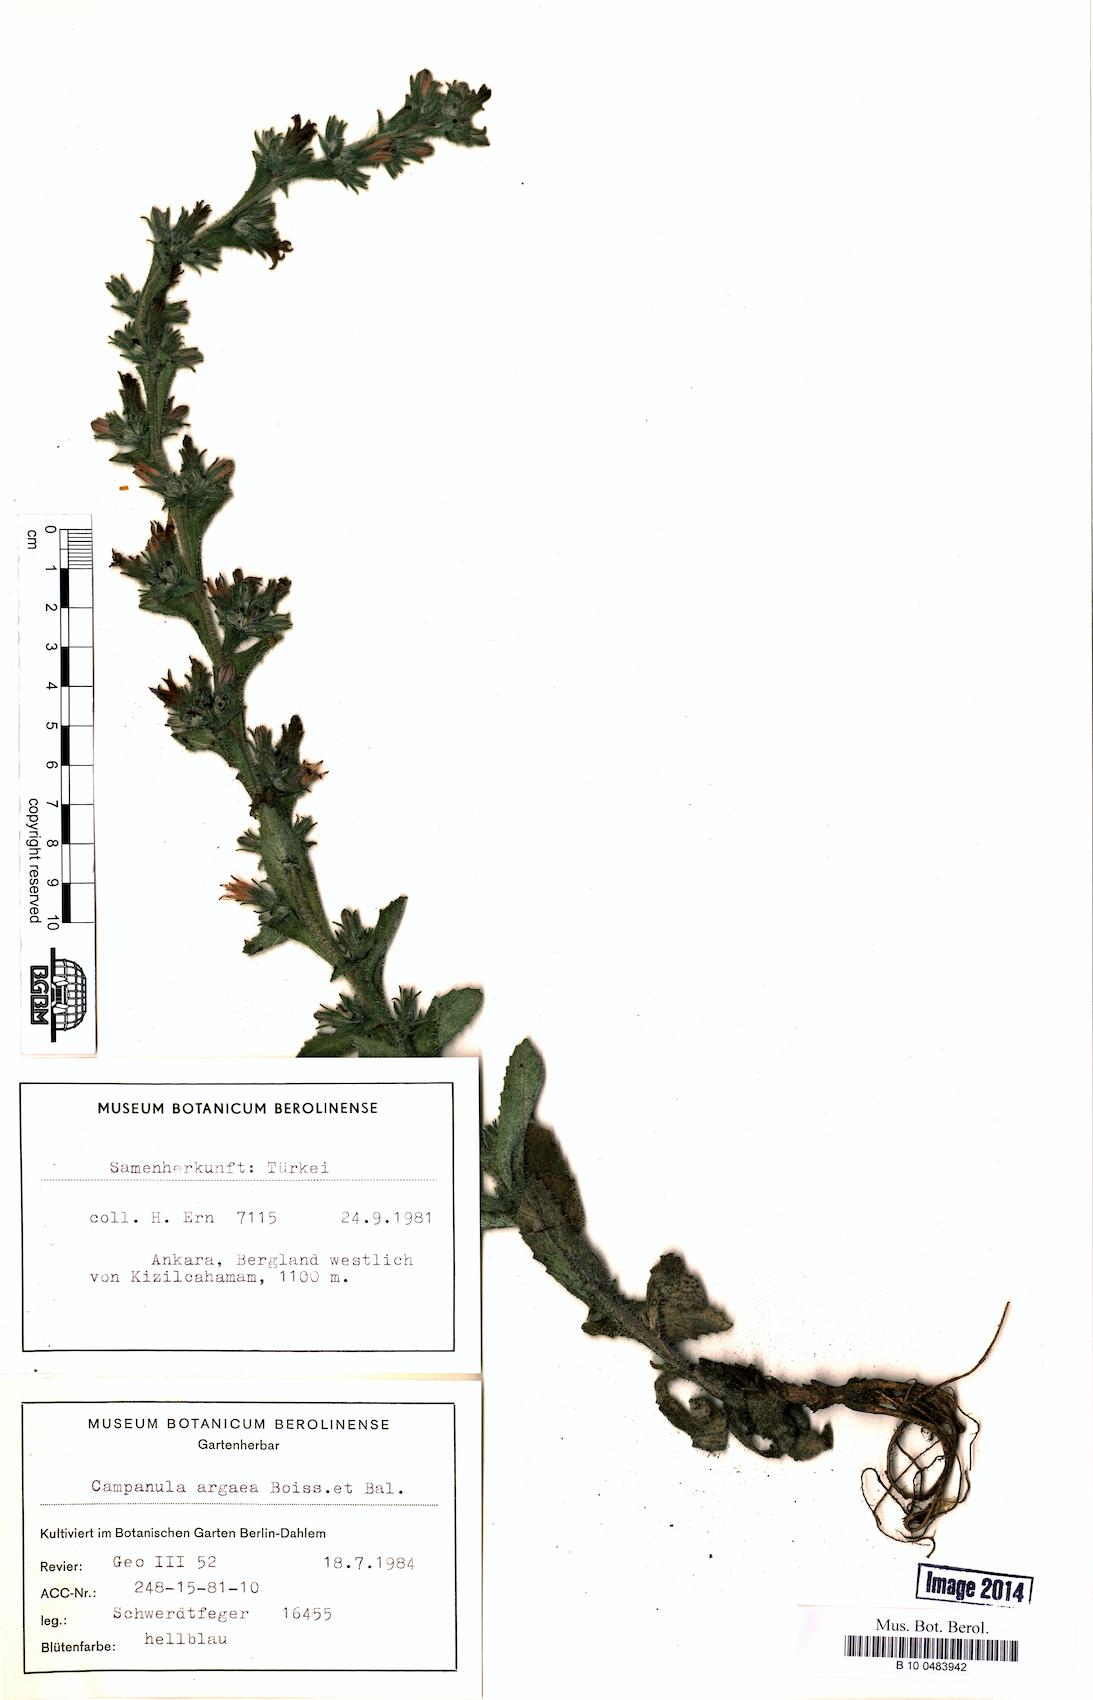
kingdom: Plantae
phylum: Tracheophyta
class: Magnoliopsida
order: Asterales
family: Campanulaceae
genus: Campanula
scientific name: Campanula ajugifolia
